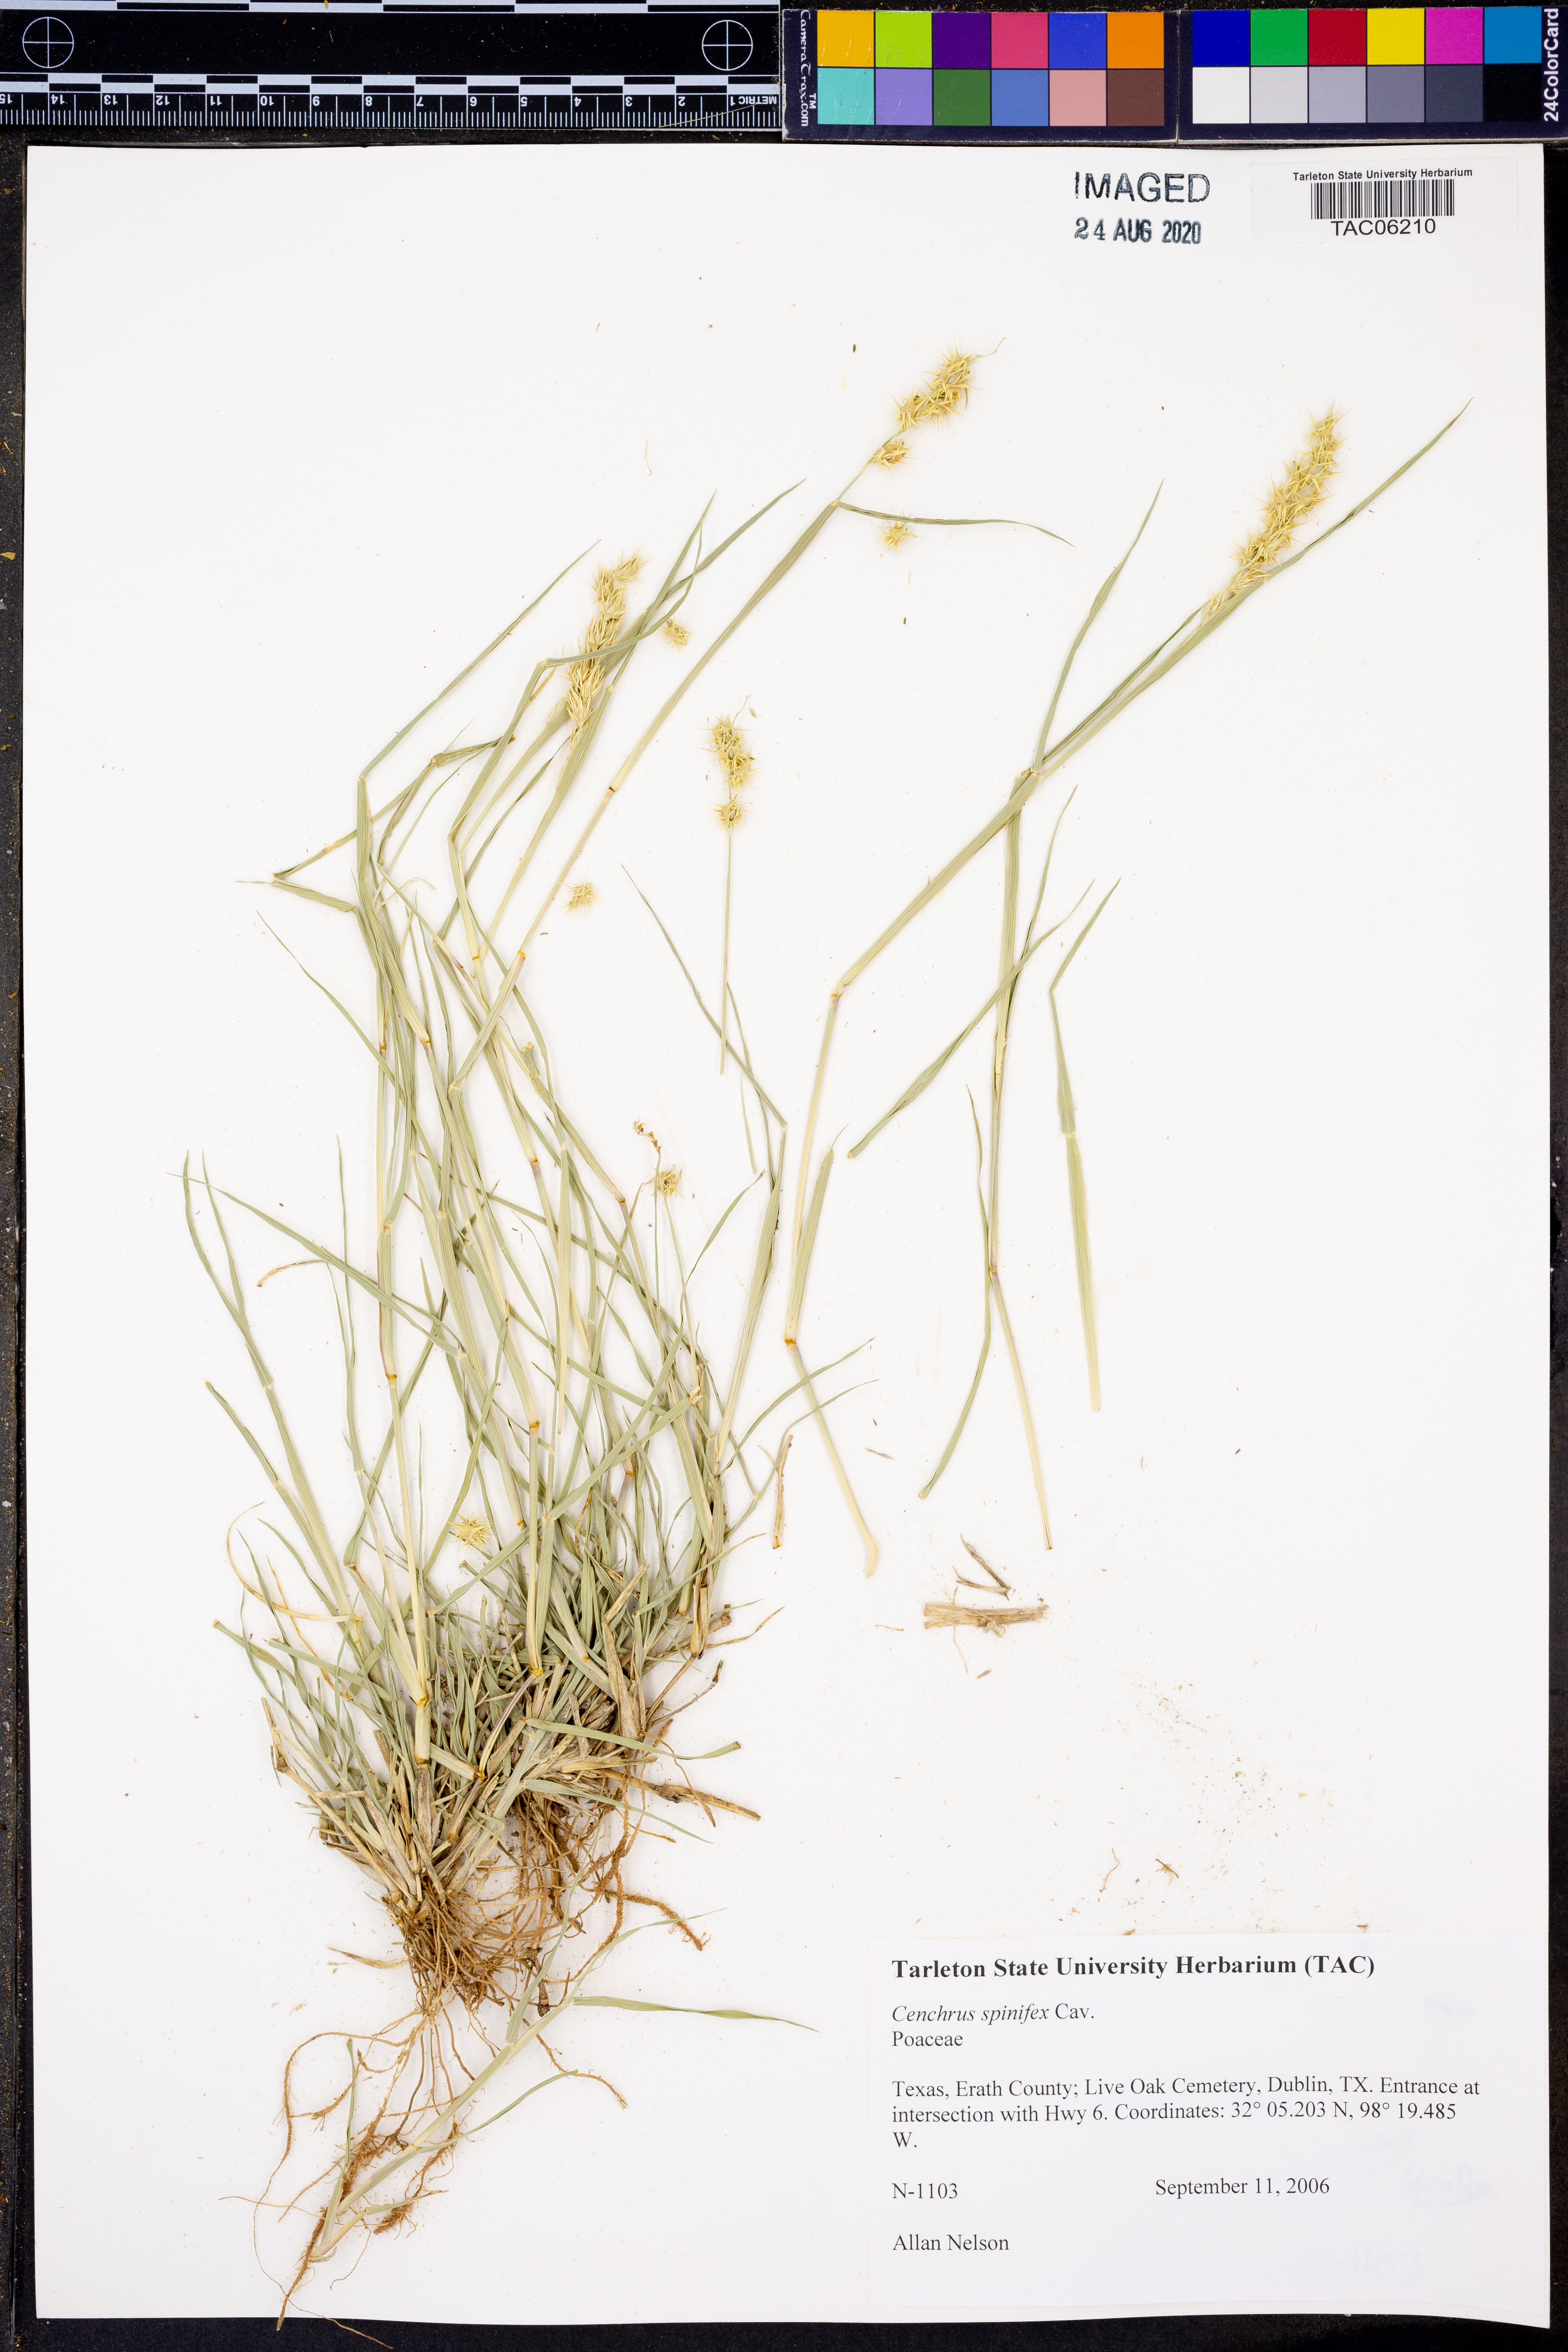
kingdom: Plantae
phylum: Tracheophyta
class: Liliopsida
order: Poales
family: Poaceae
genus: Cenchrus
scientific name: Cenchrus spinifex
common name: Coast sandbur
